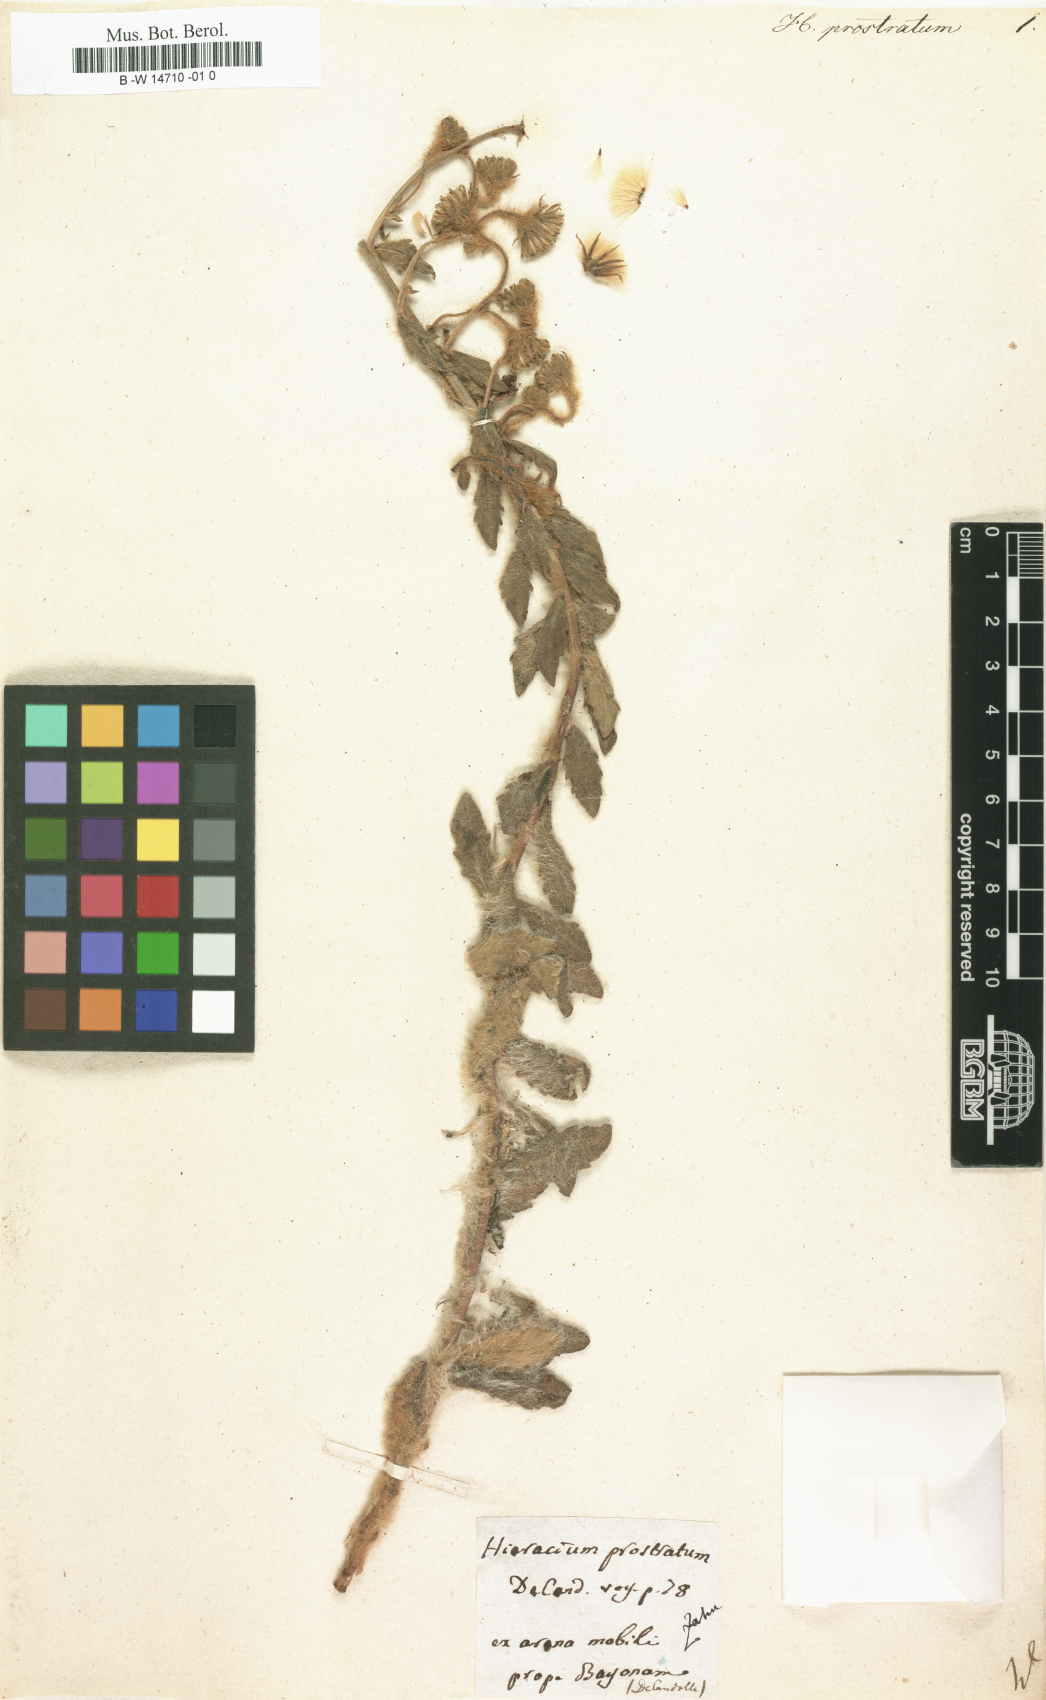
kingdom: Plantae
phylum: Tracheophyta
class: Magnoliopsida
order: Asterales
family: Asteraceae
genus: Hieracium
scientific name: Hieracium prostratum
